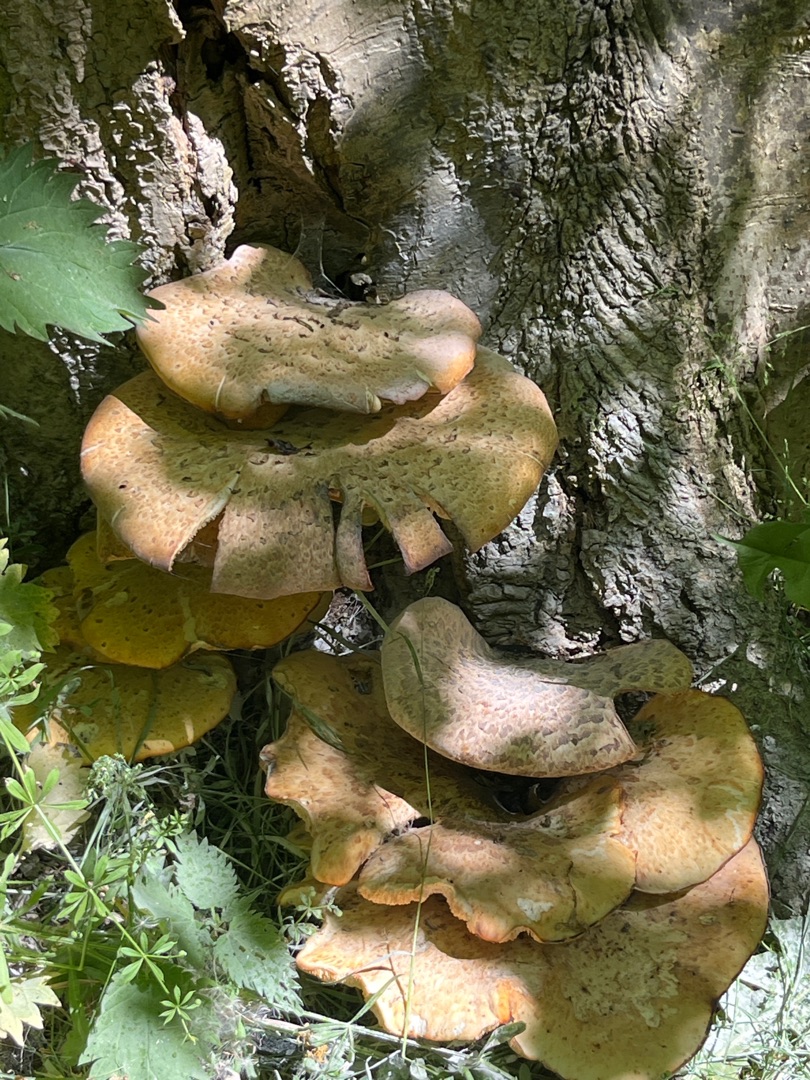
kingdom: Fungi
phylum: Basidiomycota
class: Agaricomycetes
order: Polyporales
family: Polyporaceae
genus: Cerioporus
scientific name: Cerioporus squamosus
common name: Skællet stilkporesvamp
